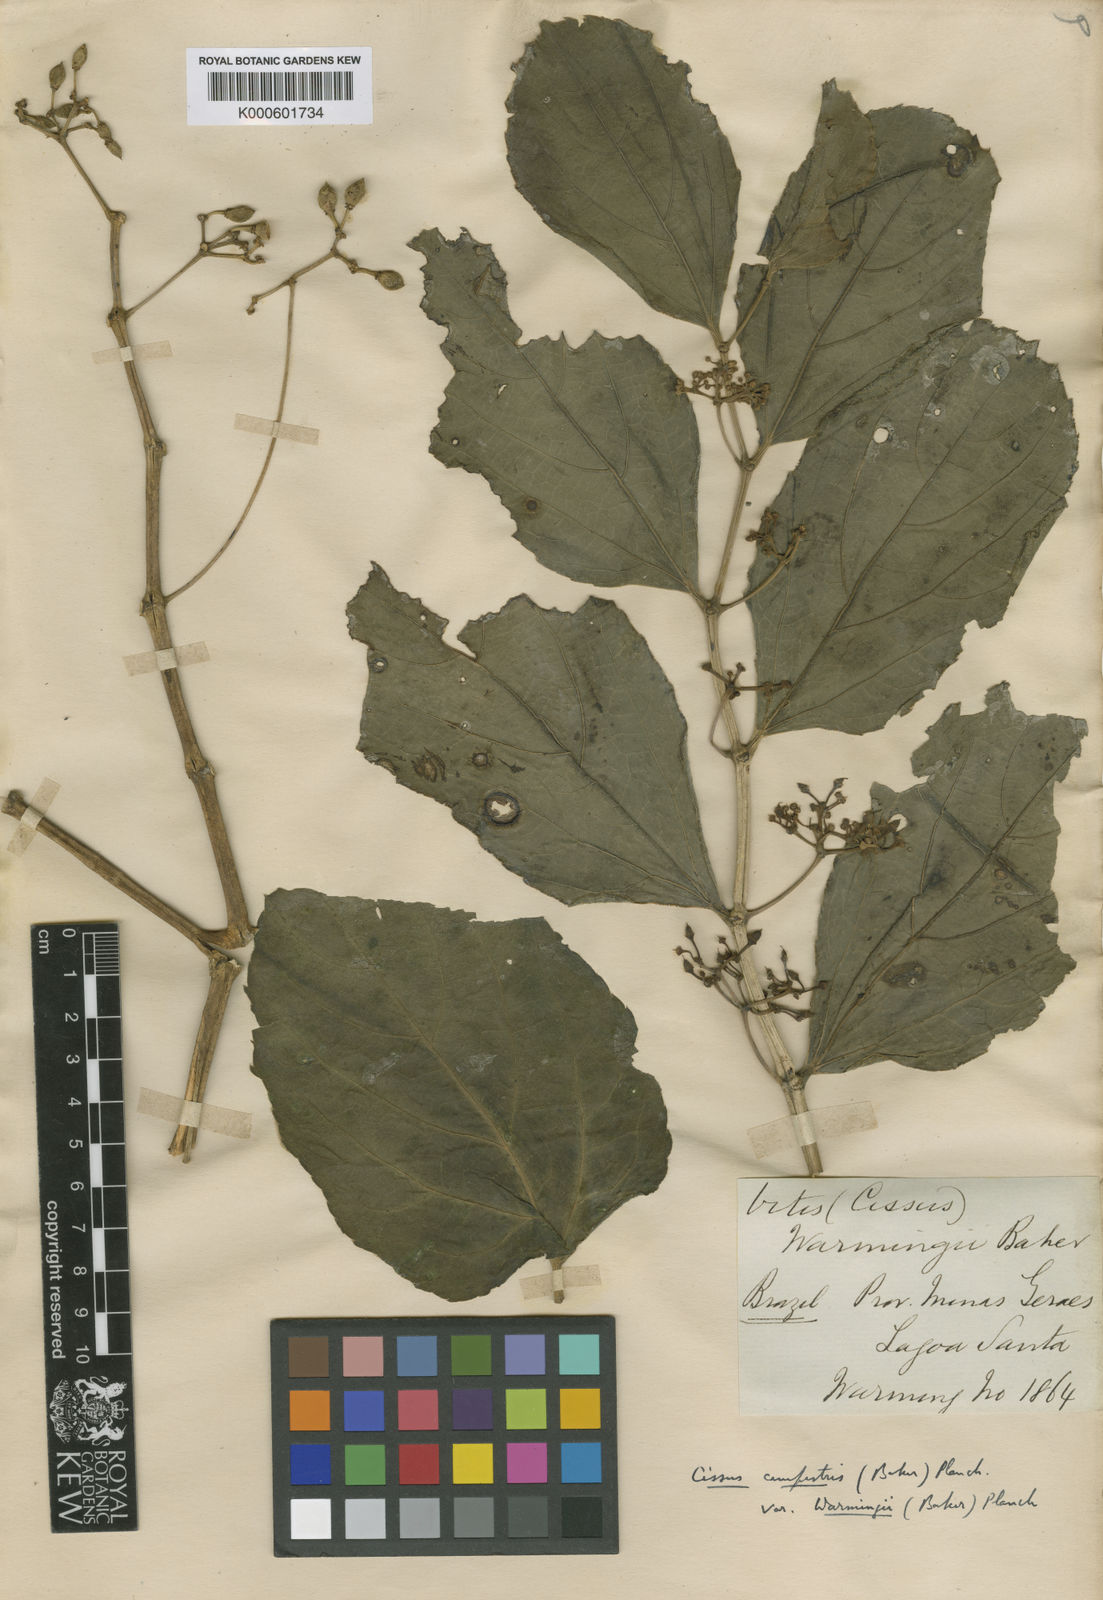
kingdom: Plantae
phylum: Tracheophyta
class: Magnoliopsida
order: Vitales
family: Vitaceae
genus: Cissus
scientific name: Cissus campestris
